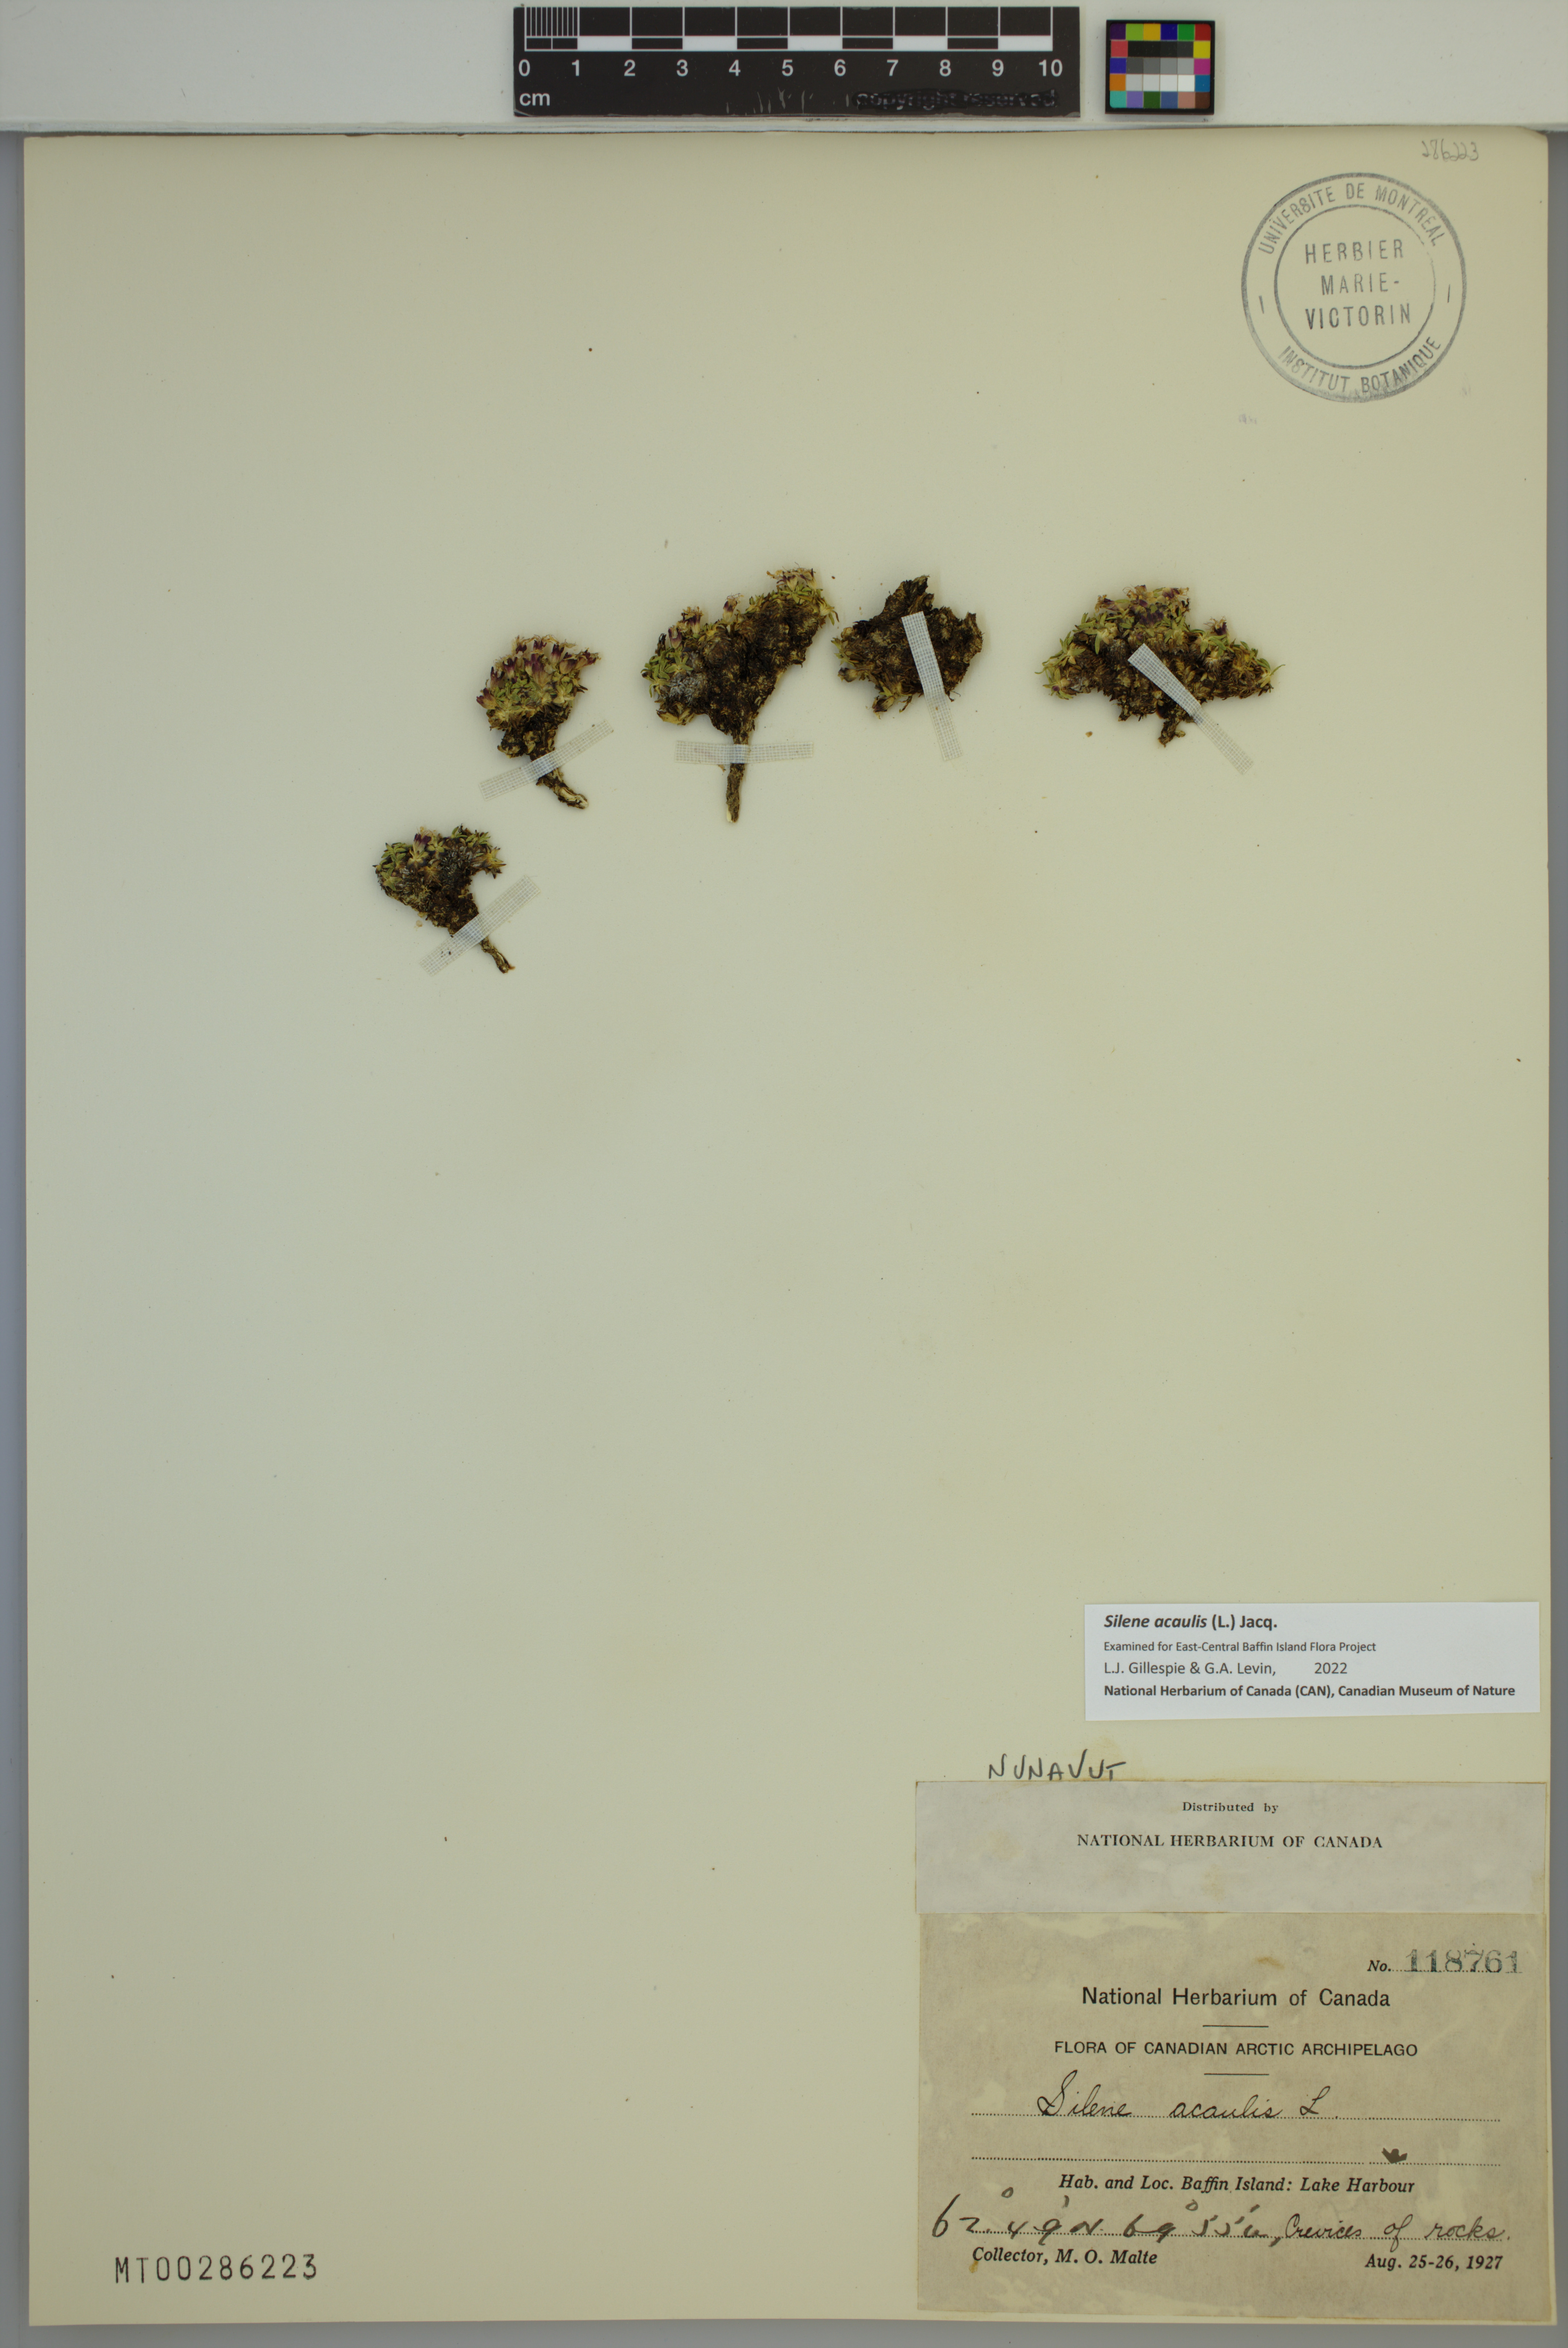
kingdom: Plantae
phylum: Tracheophyta
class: Magnoliopsida
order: Caryophyllales
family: Caryophyllaceae
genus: Silene
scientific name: Silene acaulis
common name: Moss campion
